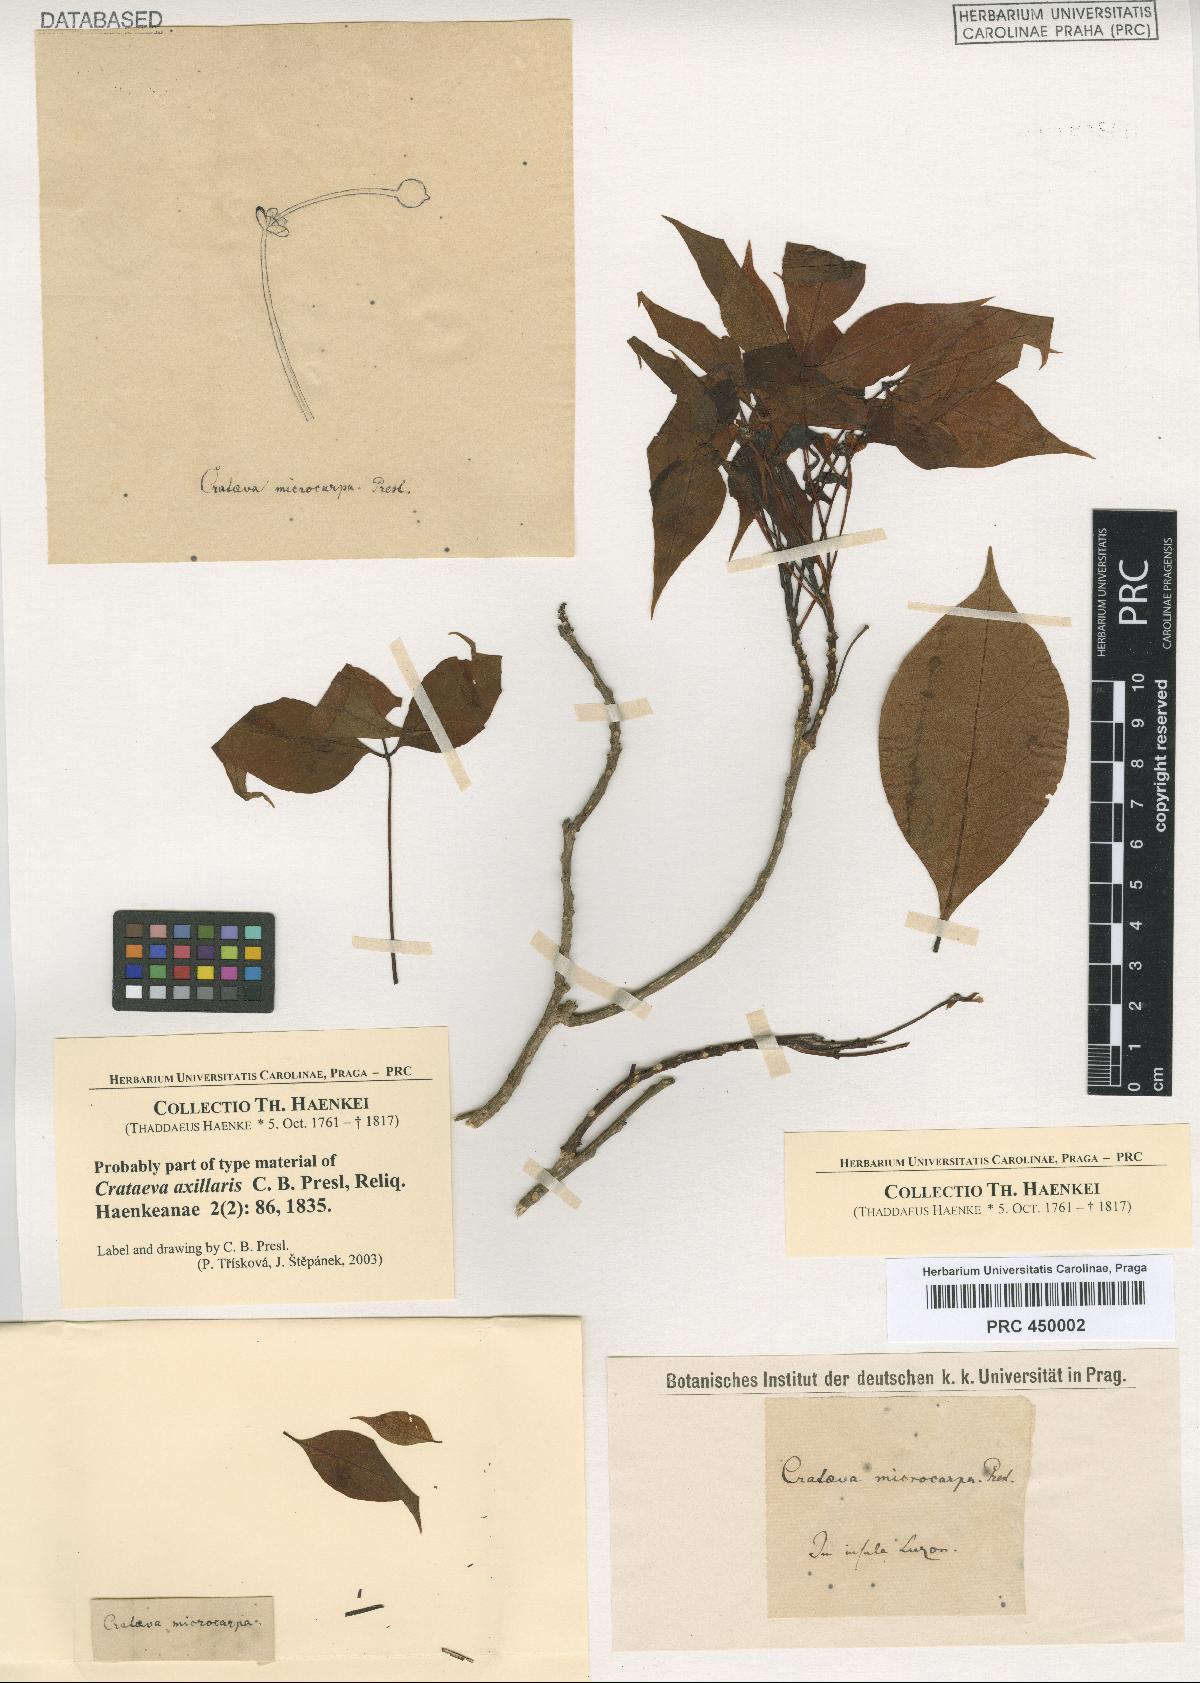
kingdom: Plantae
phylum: Tracheophyta
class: Magnoliopsida
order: Brassicales
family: Capparaceae
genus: Crateva
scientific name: Crateva religiosa
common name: March dalur
